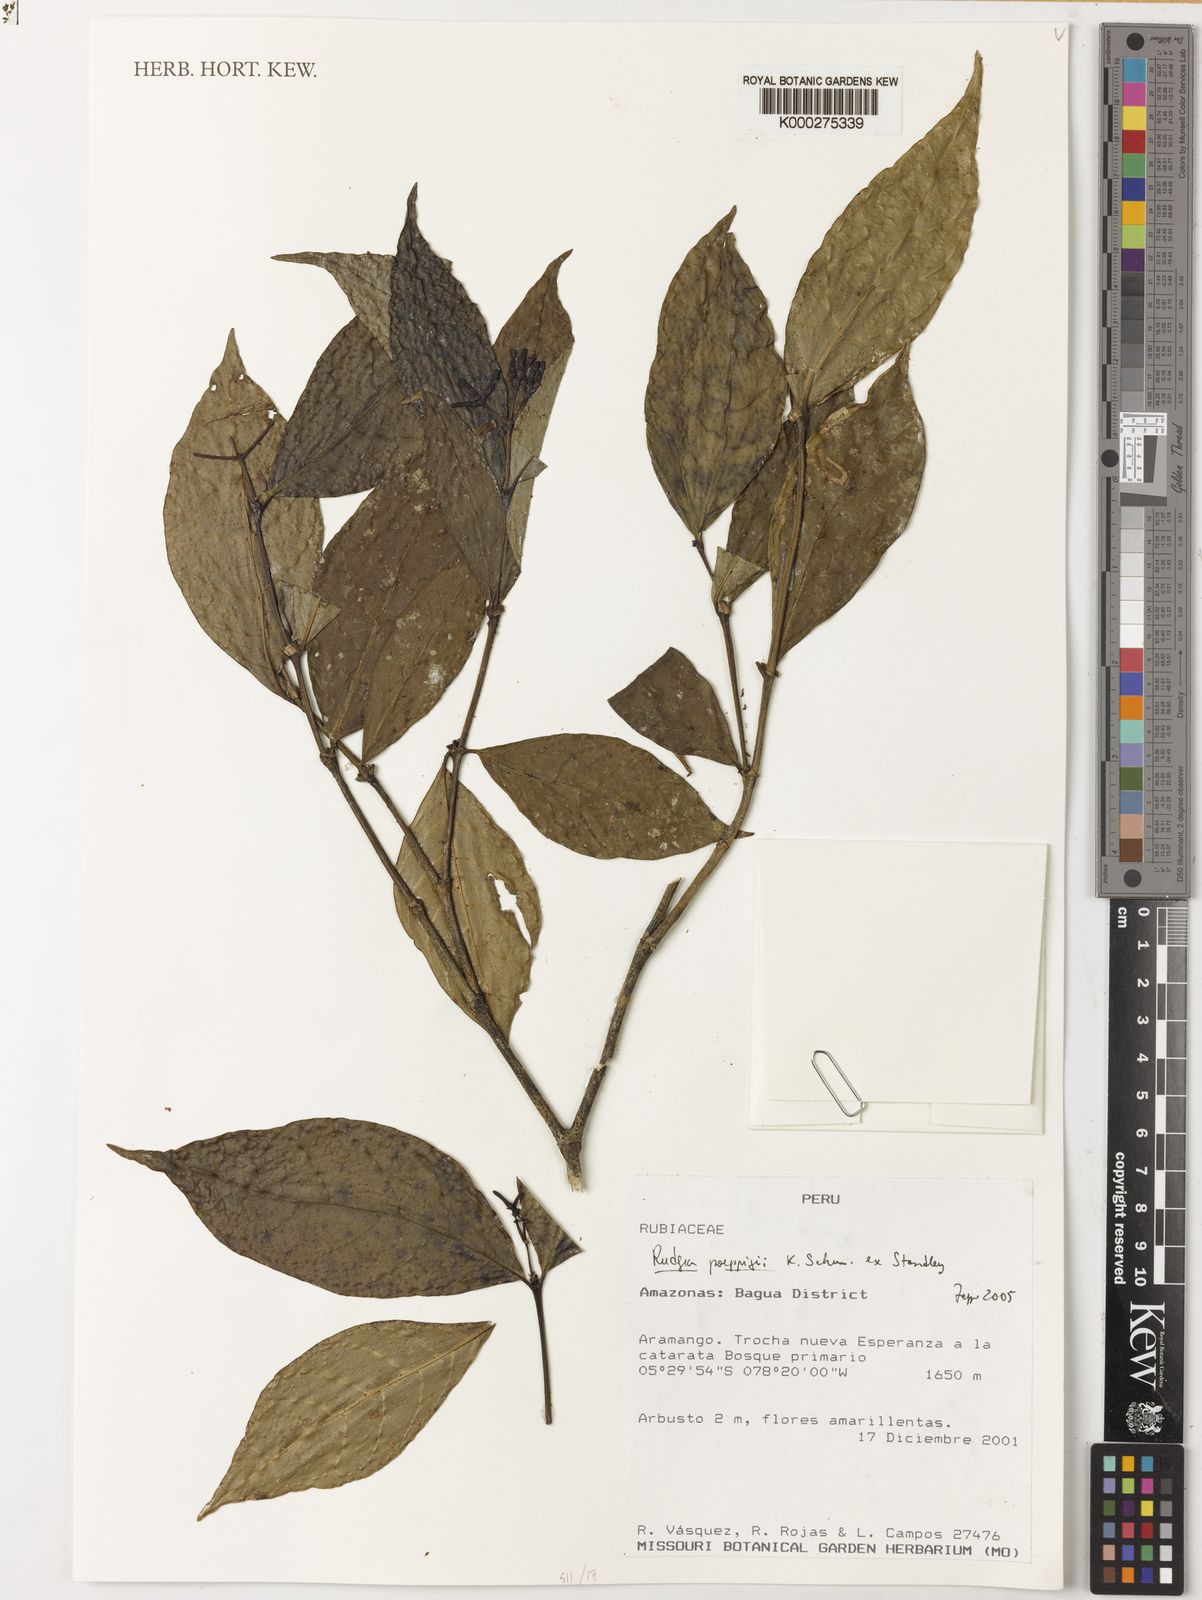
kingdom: Plantae
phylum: Tracheophyta
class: Magnoliopsida
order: Gentianales
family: Rubiaceae
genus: Rudgea
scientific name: Rudgea poeppigii
